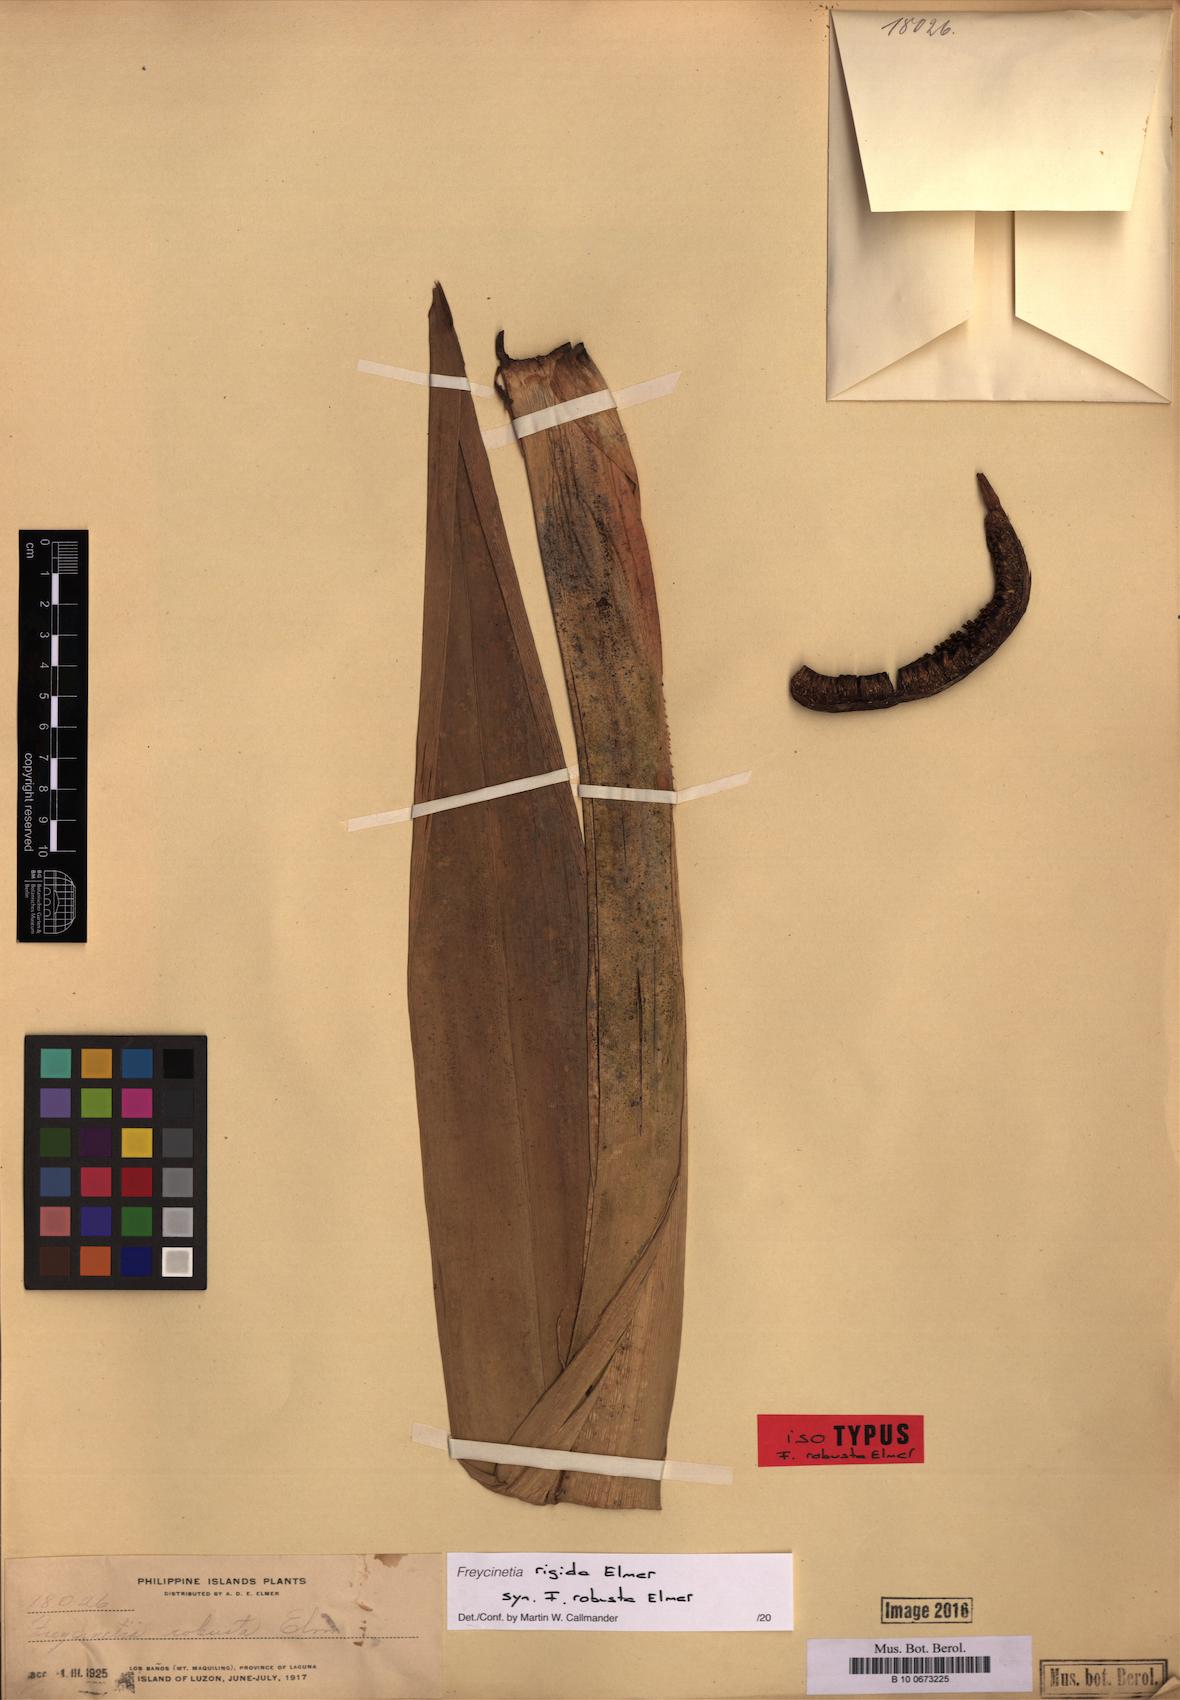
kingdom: Plantae
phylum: Tracheophyta
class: Liliopsida
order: Pandanales
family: Pandanaceae
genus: Freycinetia
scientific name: Freycinetia rigida
